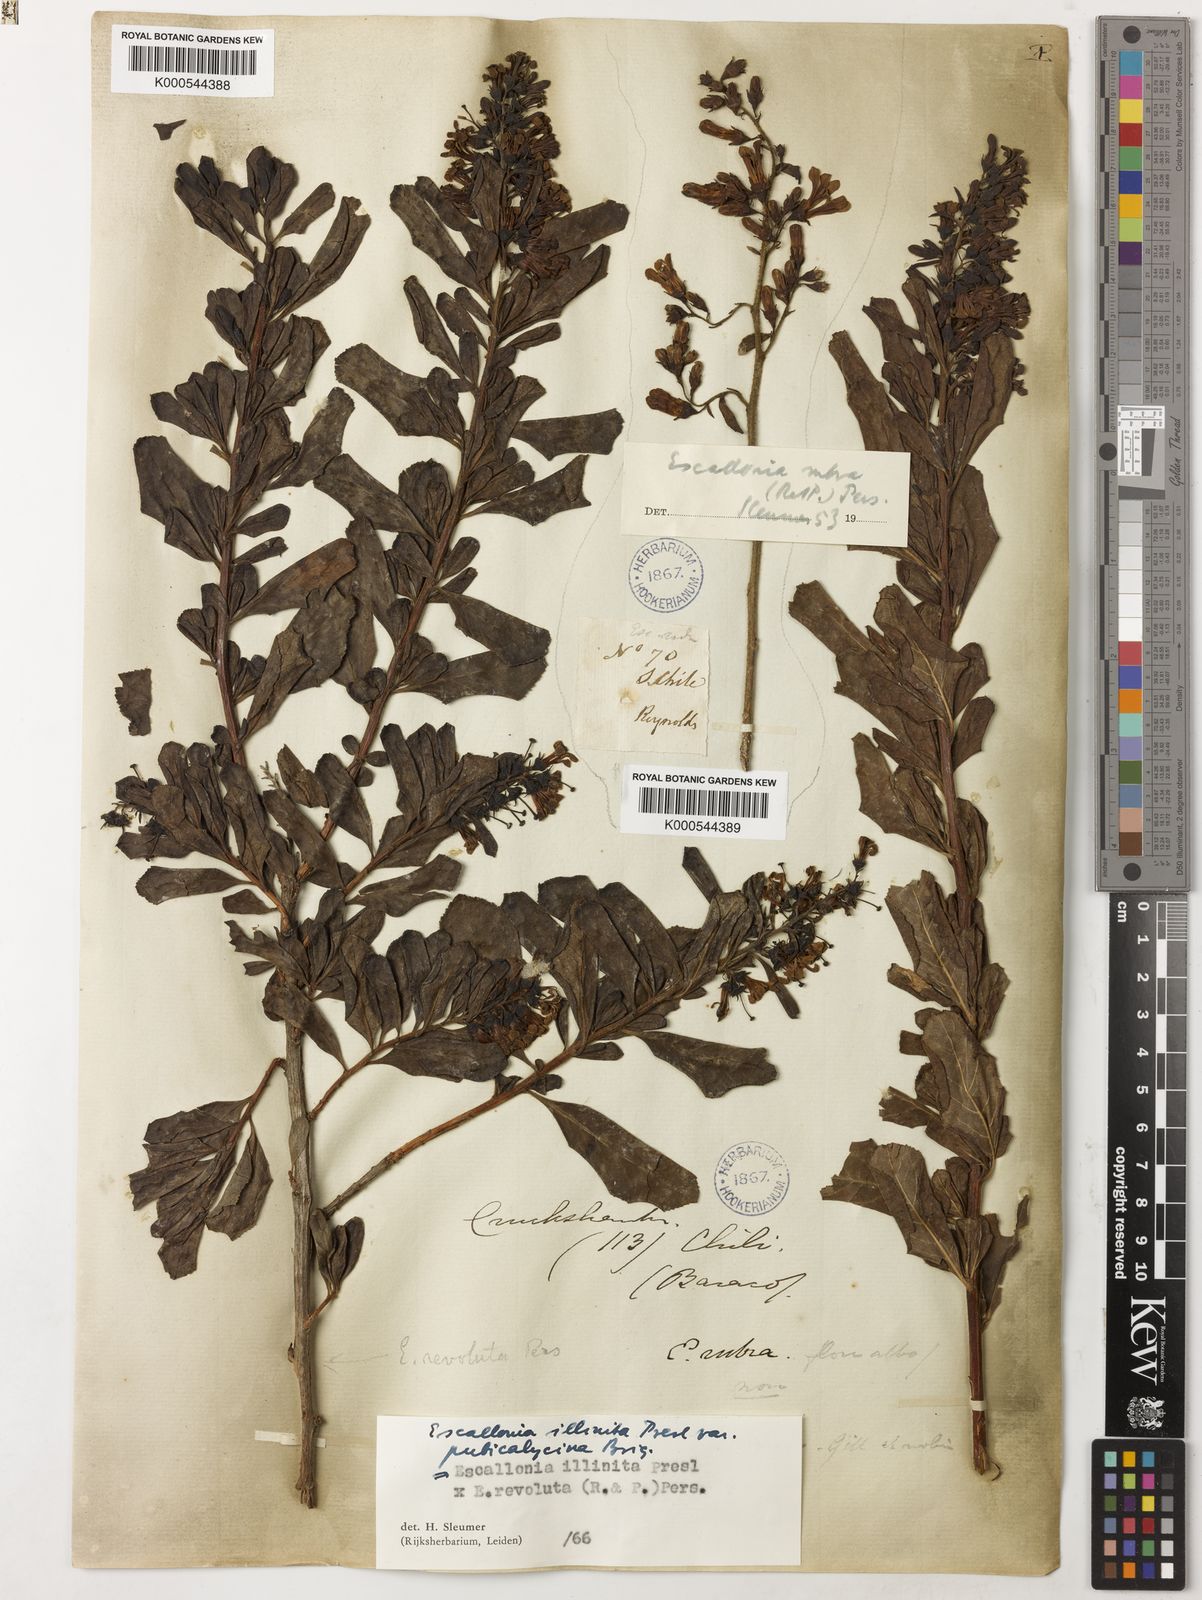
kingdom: Plantae
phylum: Tracheophyta
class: Magnoliopsida
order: Escalloniales
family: Escalloniaceae
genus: Escallonia
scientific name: Escallonia illinita
